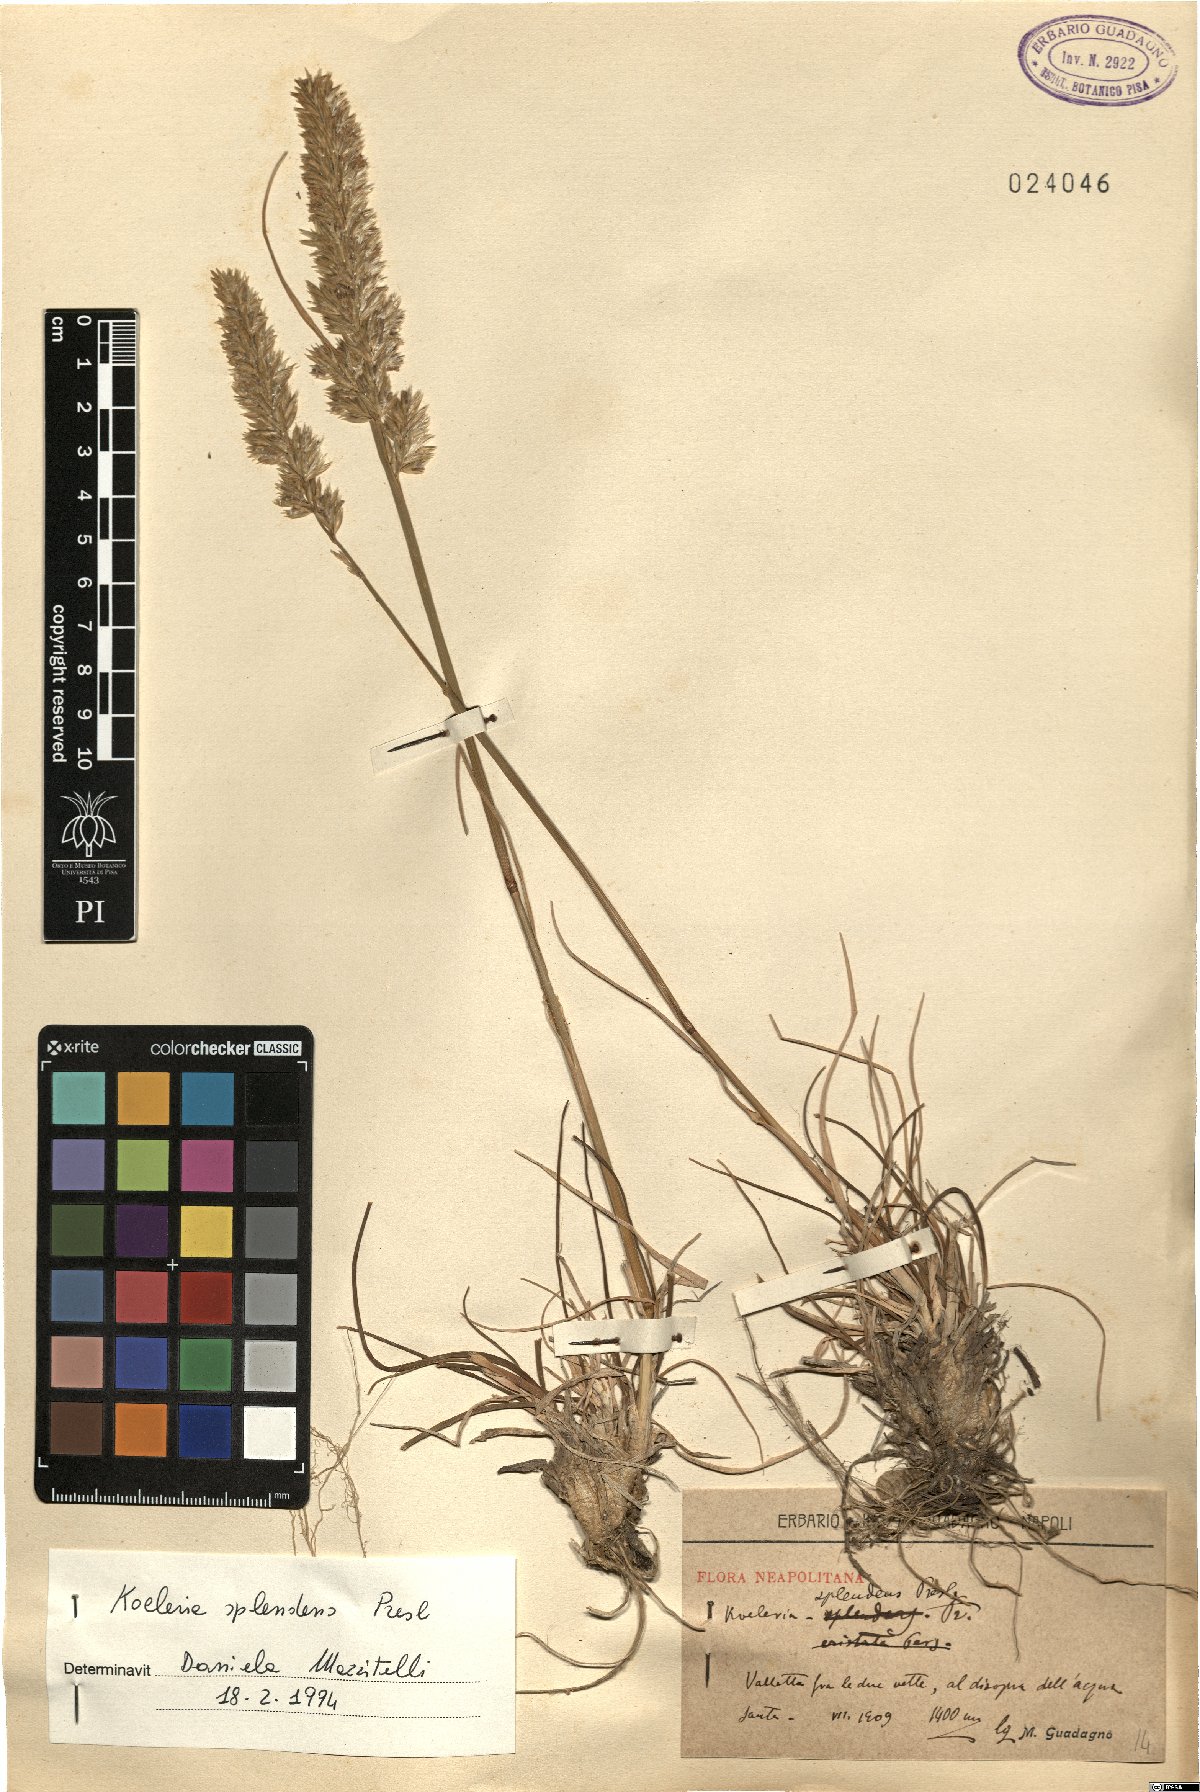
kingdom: Plantae
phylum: Tracheophyta
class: Liliopsida
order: Poales
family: Poaceae
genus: Koeleria
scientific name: Koeleria splendens
